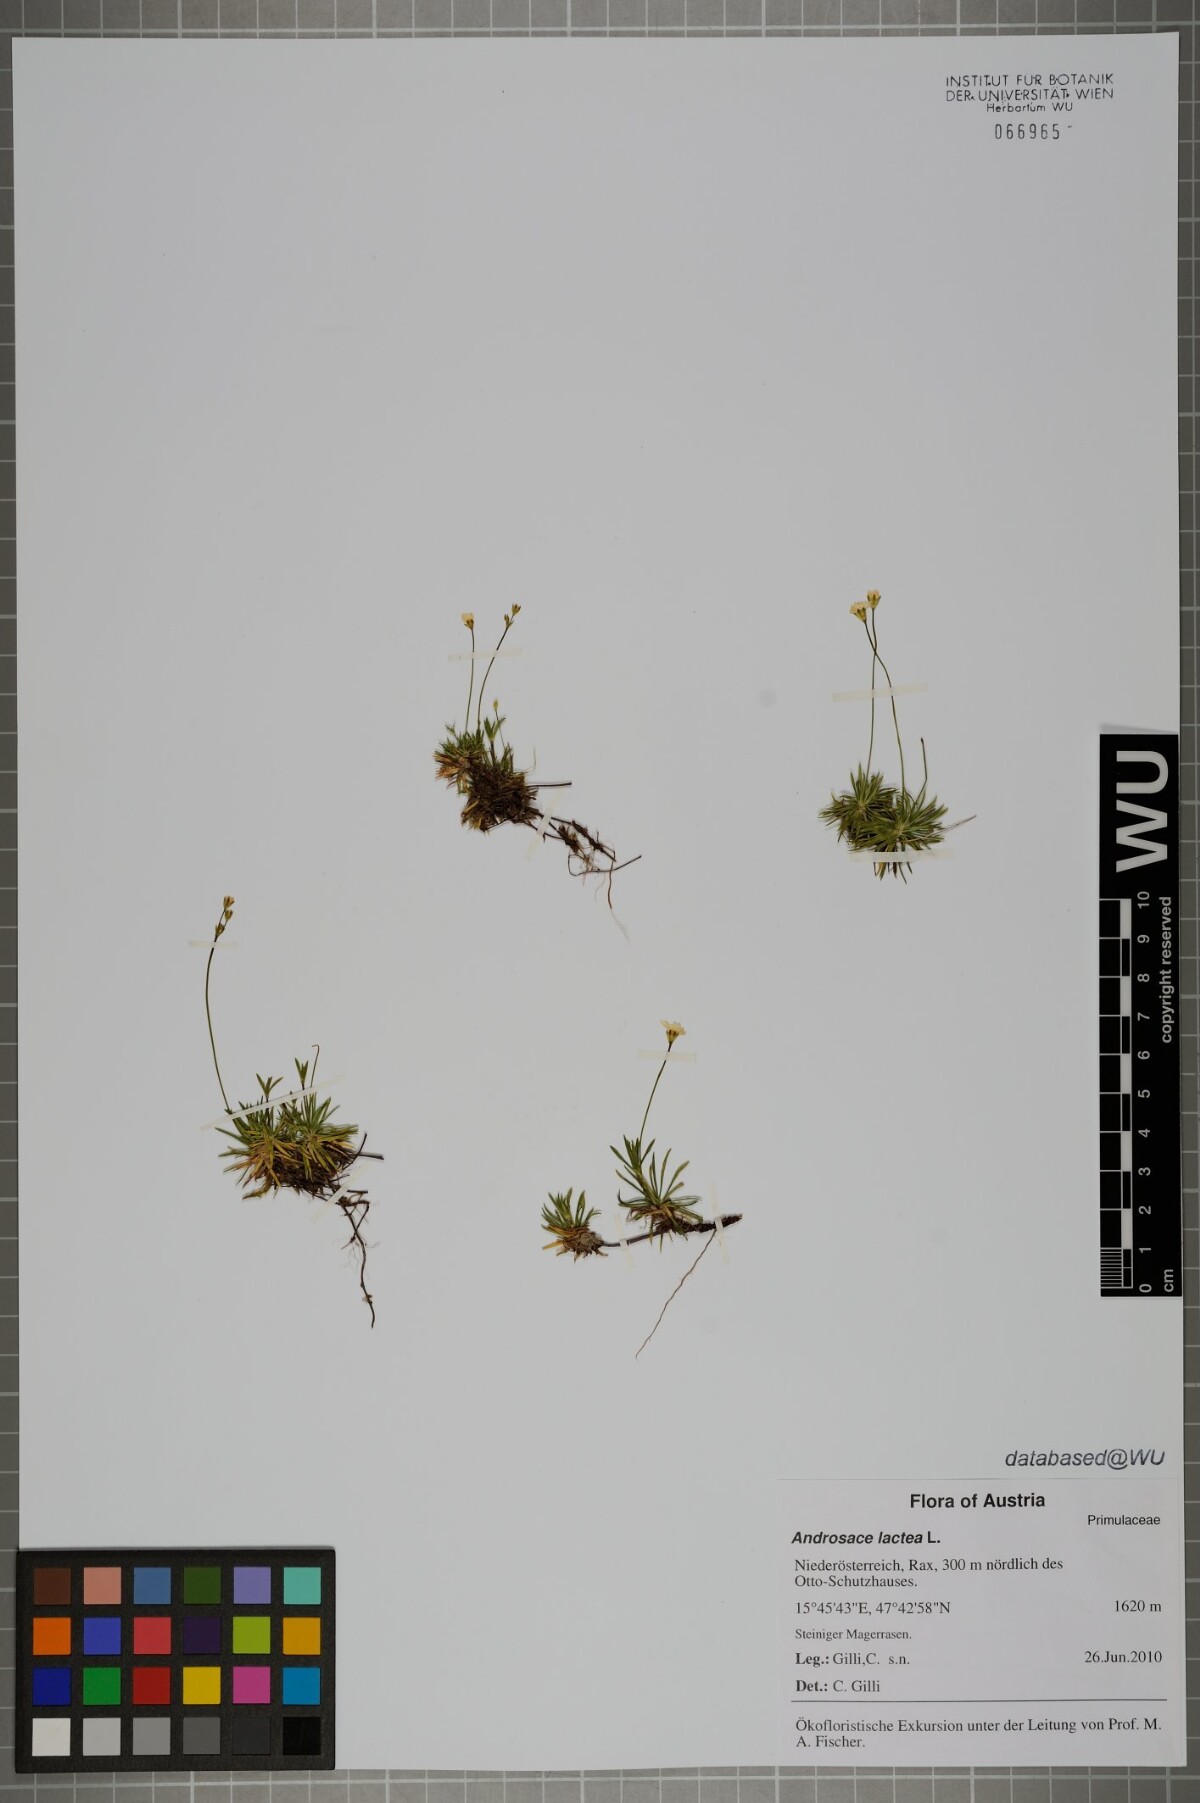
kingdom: Plantae
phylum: Tracheophyta
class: Magnoliopsida
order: Ericales
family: Primulaceae
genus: Androsace
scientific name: Androsace lactea
